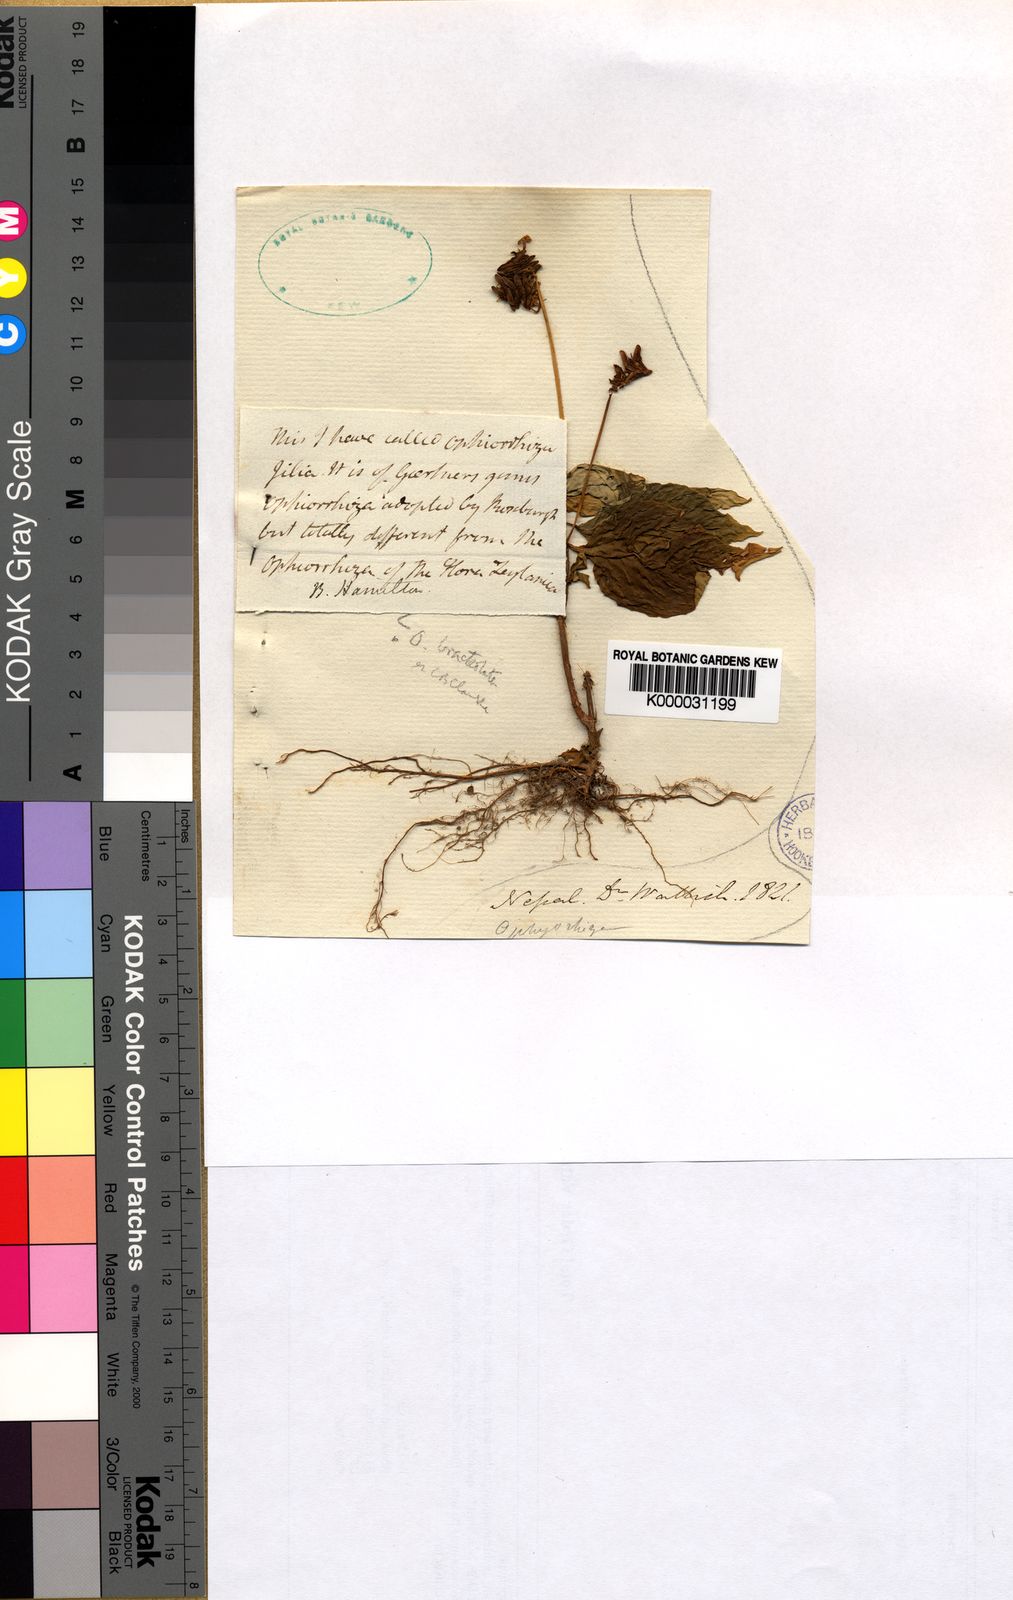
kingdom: Plantae
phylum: Tracheophyta
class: Magnoliopsida
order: Gentianales
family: Rubiaceae
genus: Ophiorrhiza
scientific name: Ophiorrhiza
